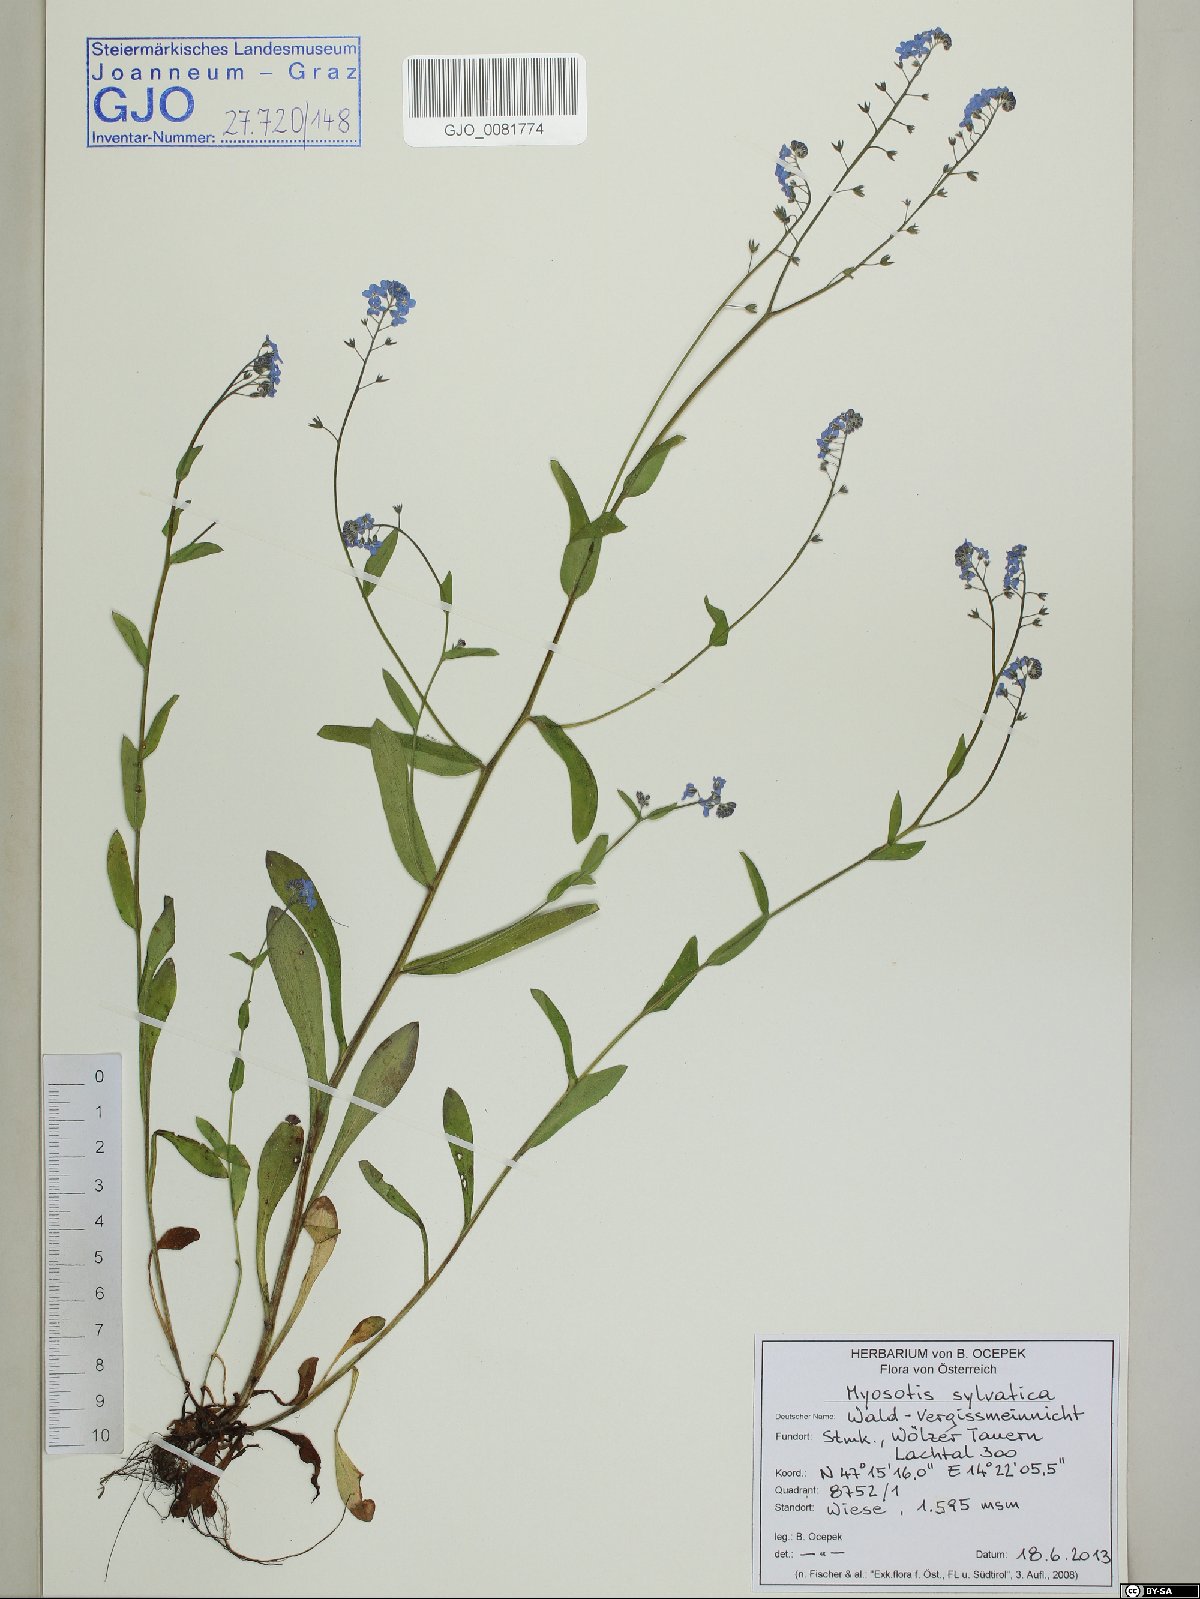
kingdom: Plantae
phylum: Tracheophyta
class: Magnoliopsida
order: Boraginales
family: Boraginaceae
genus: Myosotis
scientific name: Myosotis sylvatica
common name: Wood forget-me-not
